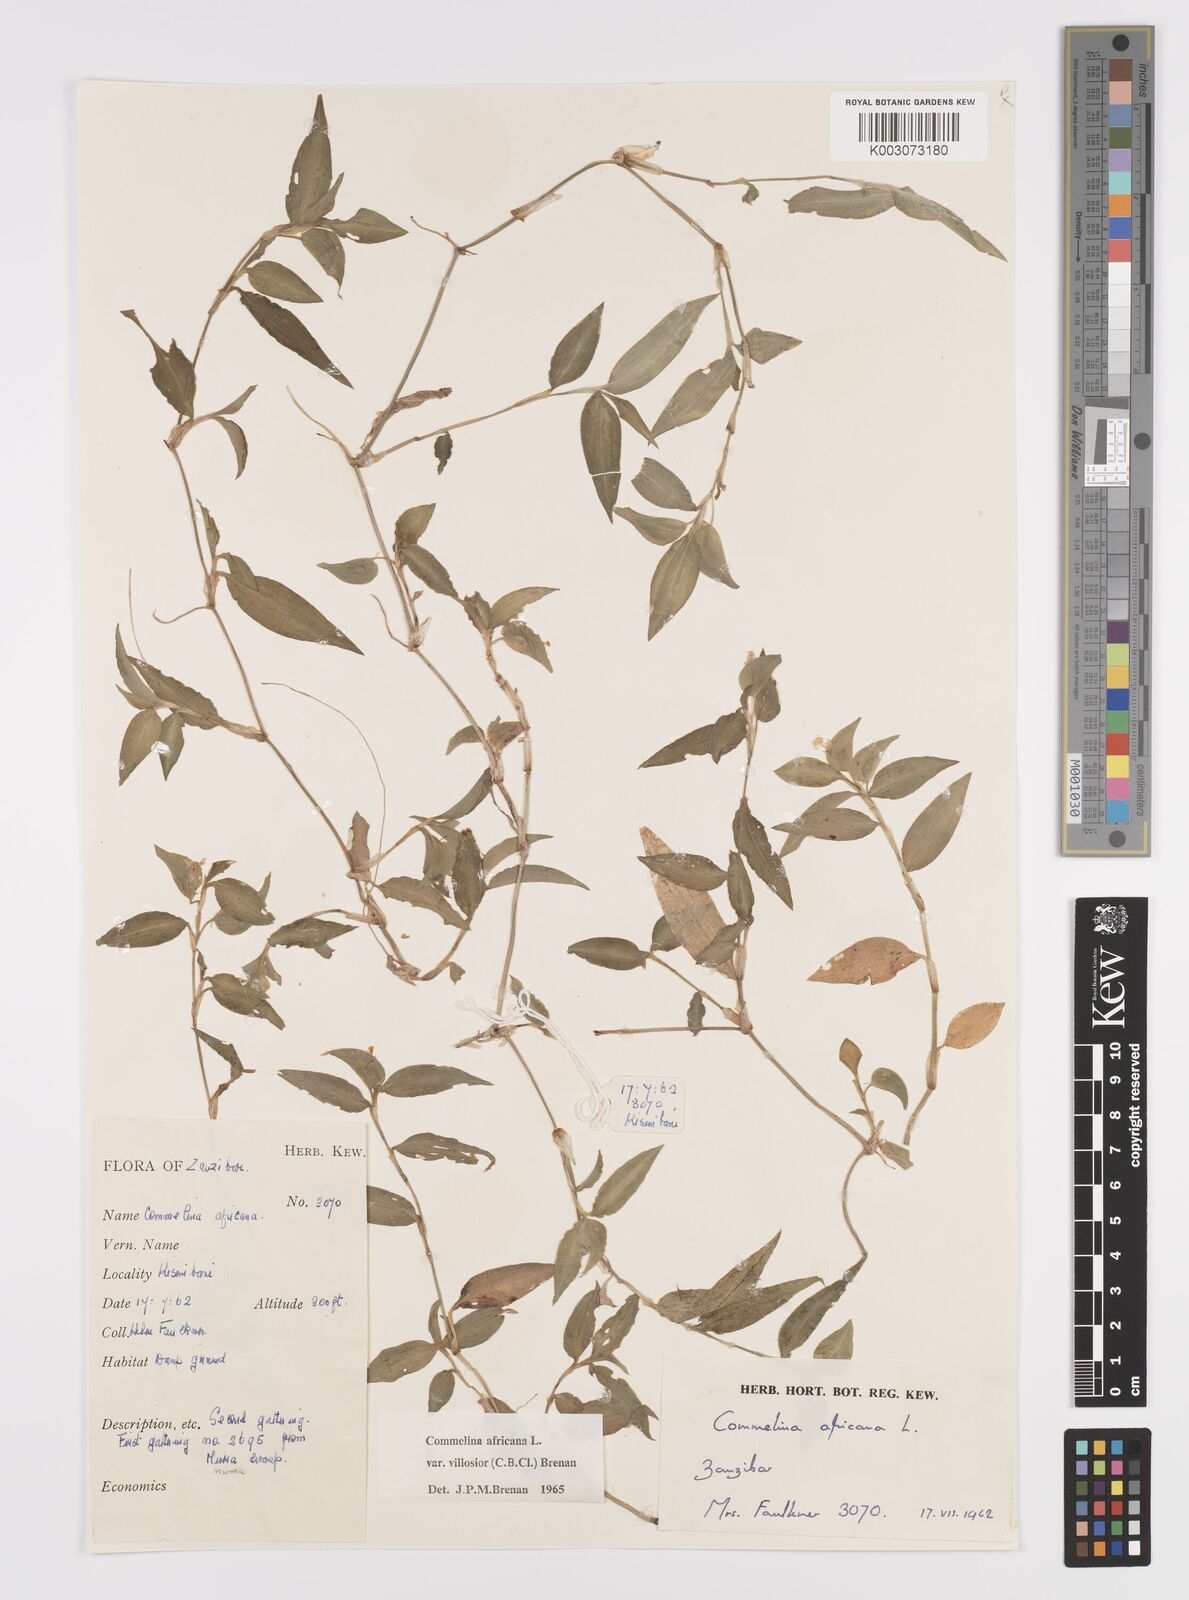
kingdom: Plantae
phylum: Tracheophyta
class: Liliopsida
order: Commelinales
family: Commelinaceae
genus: Commelina
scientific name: Commelina africana
